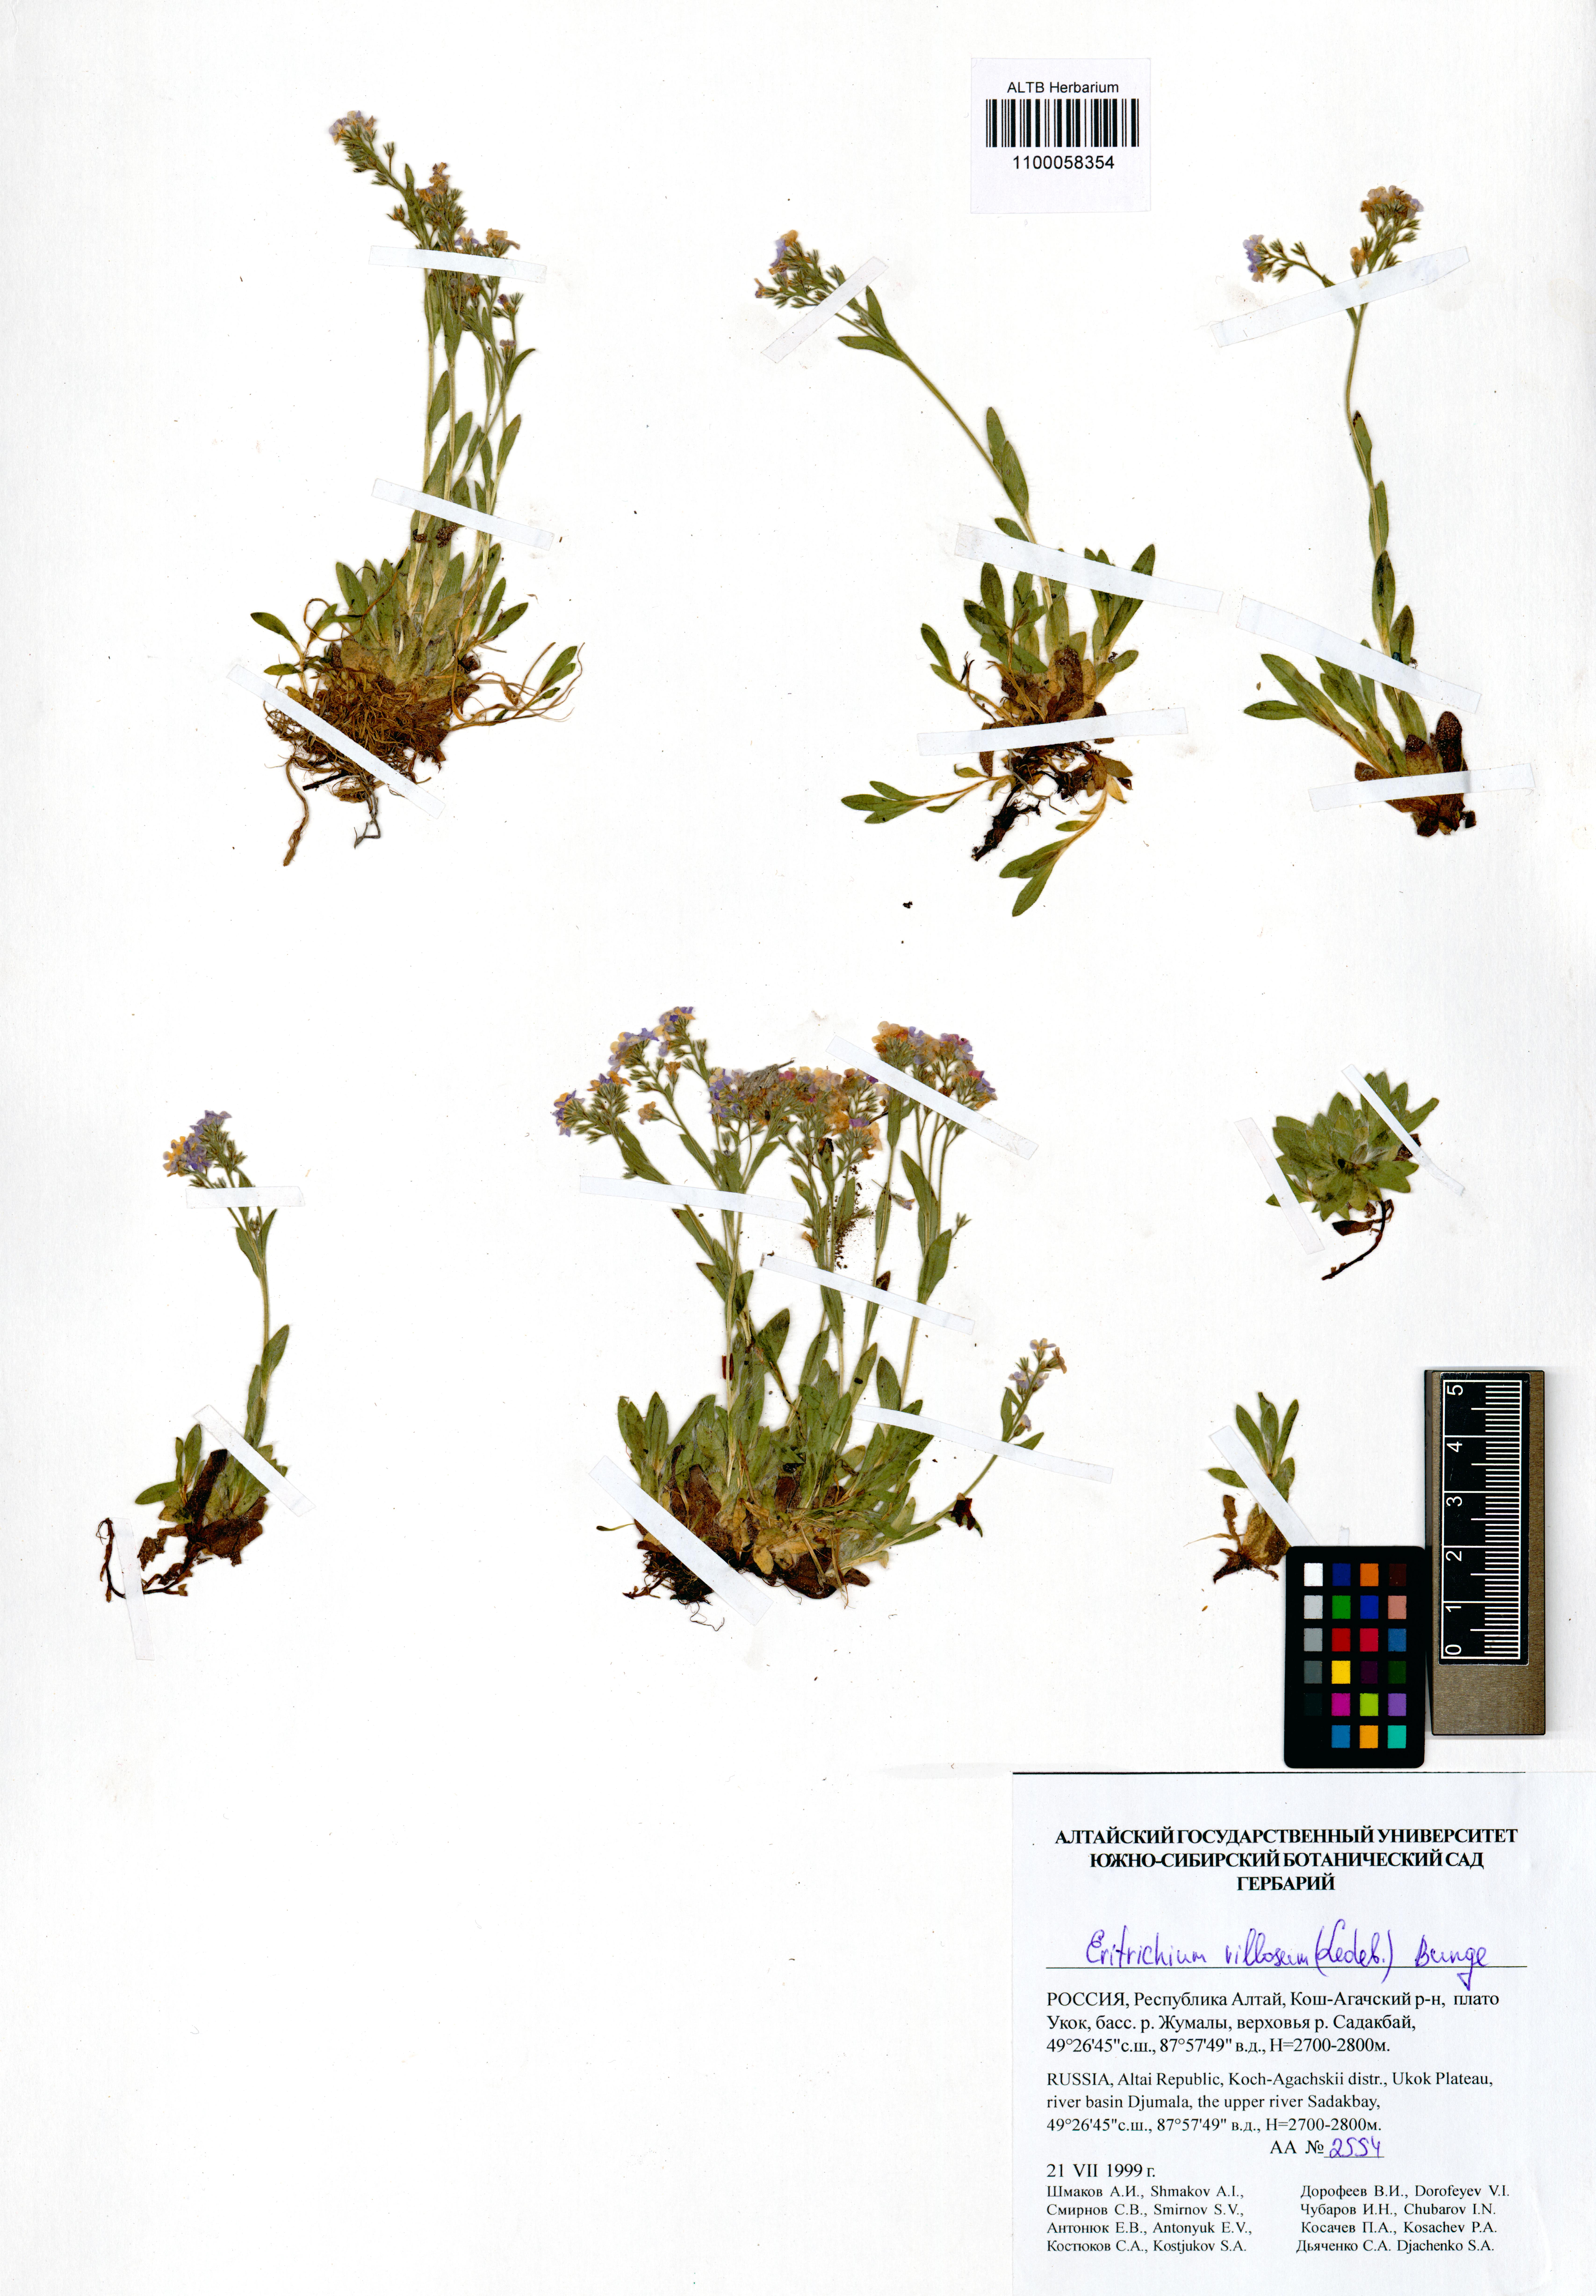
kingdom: Plantae
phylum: Tracheophyta
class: Magnoliopsida
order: Boraginales
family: Boraginaceae
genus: Eritrichium
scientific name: Eritrichium villosum
